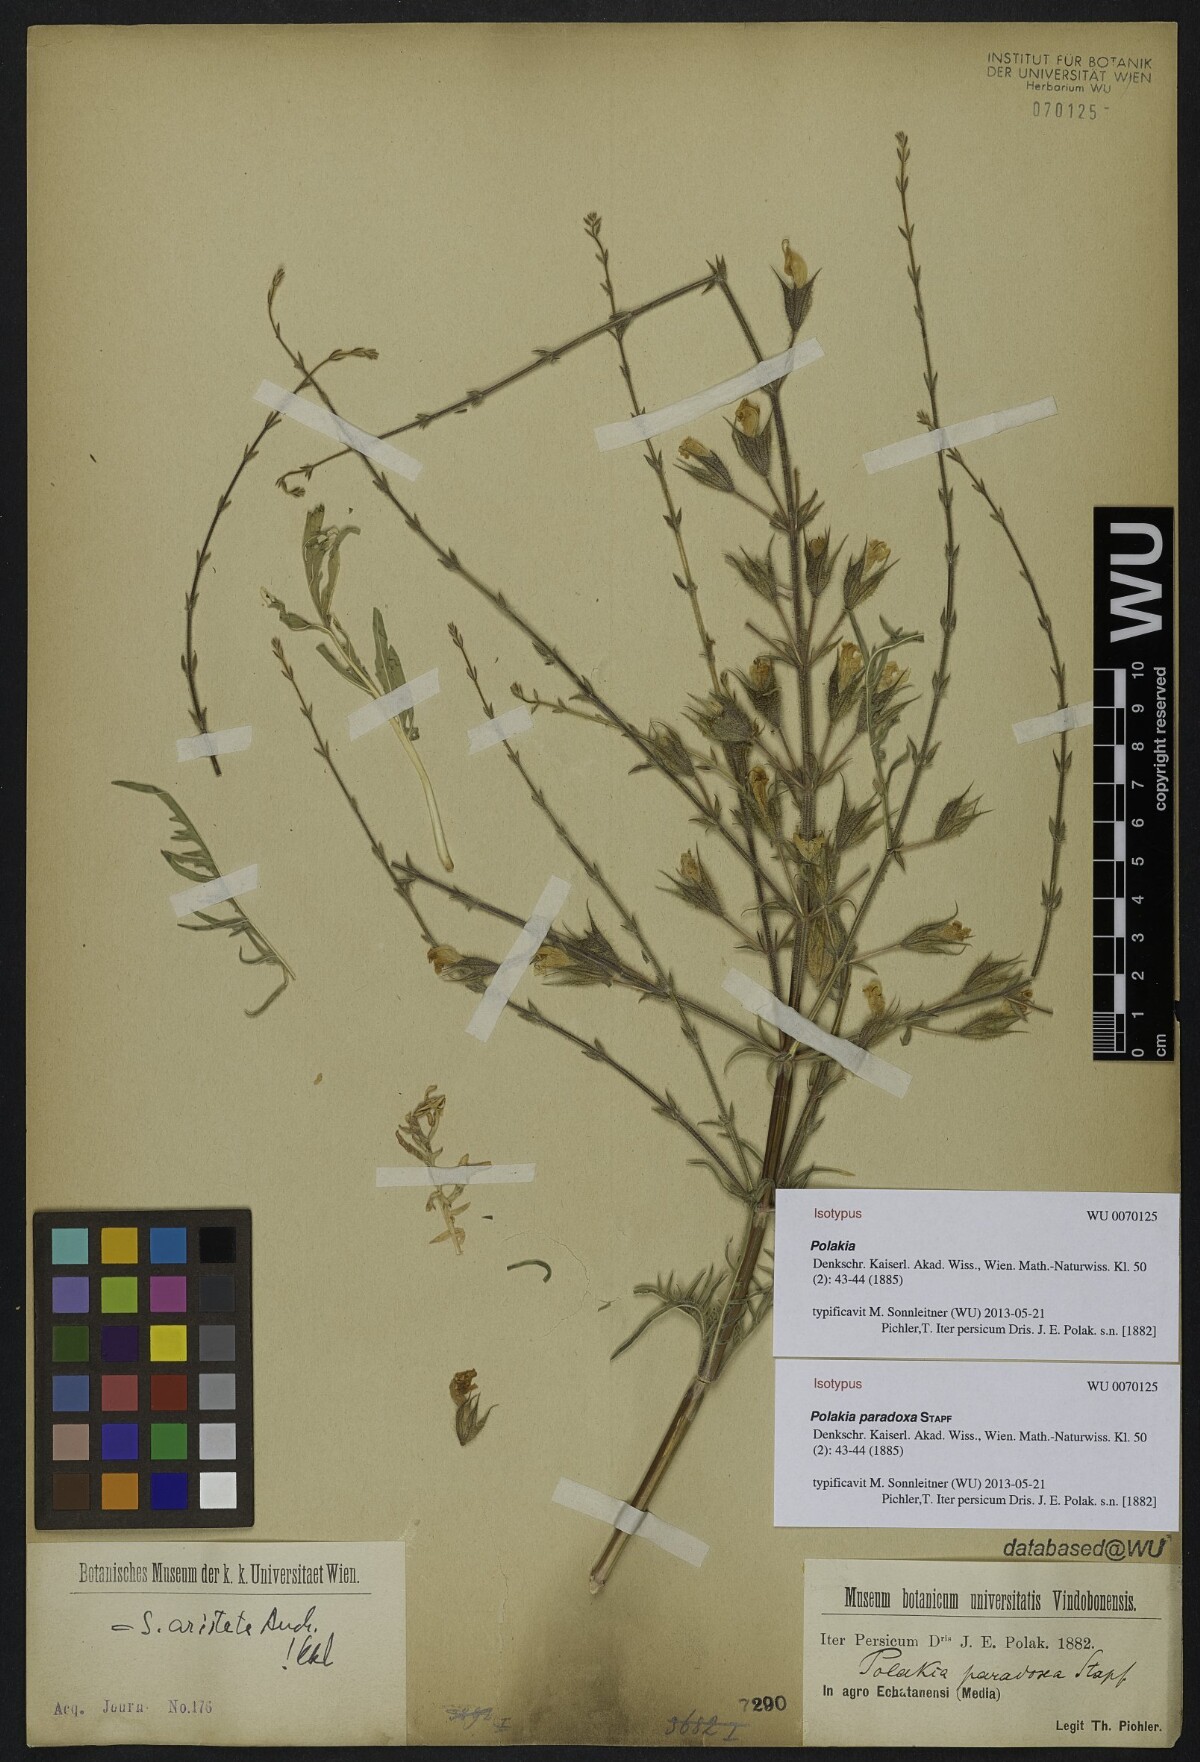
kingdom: Plantae
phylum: Tracheophyta
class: Magnoliopsida
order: Lamiales
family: Lamiaceae
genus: Salvia
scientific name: Salvia aristata
